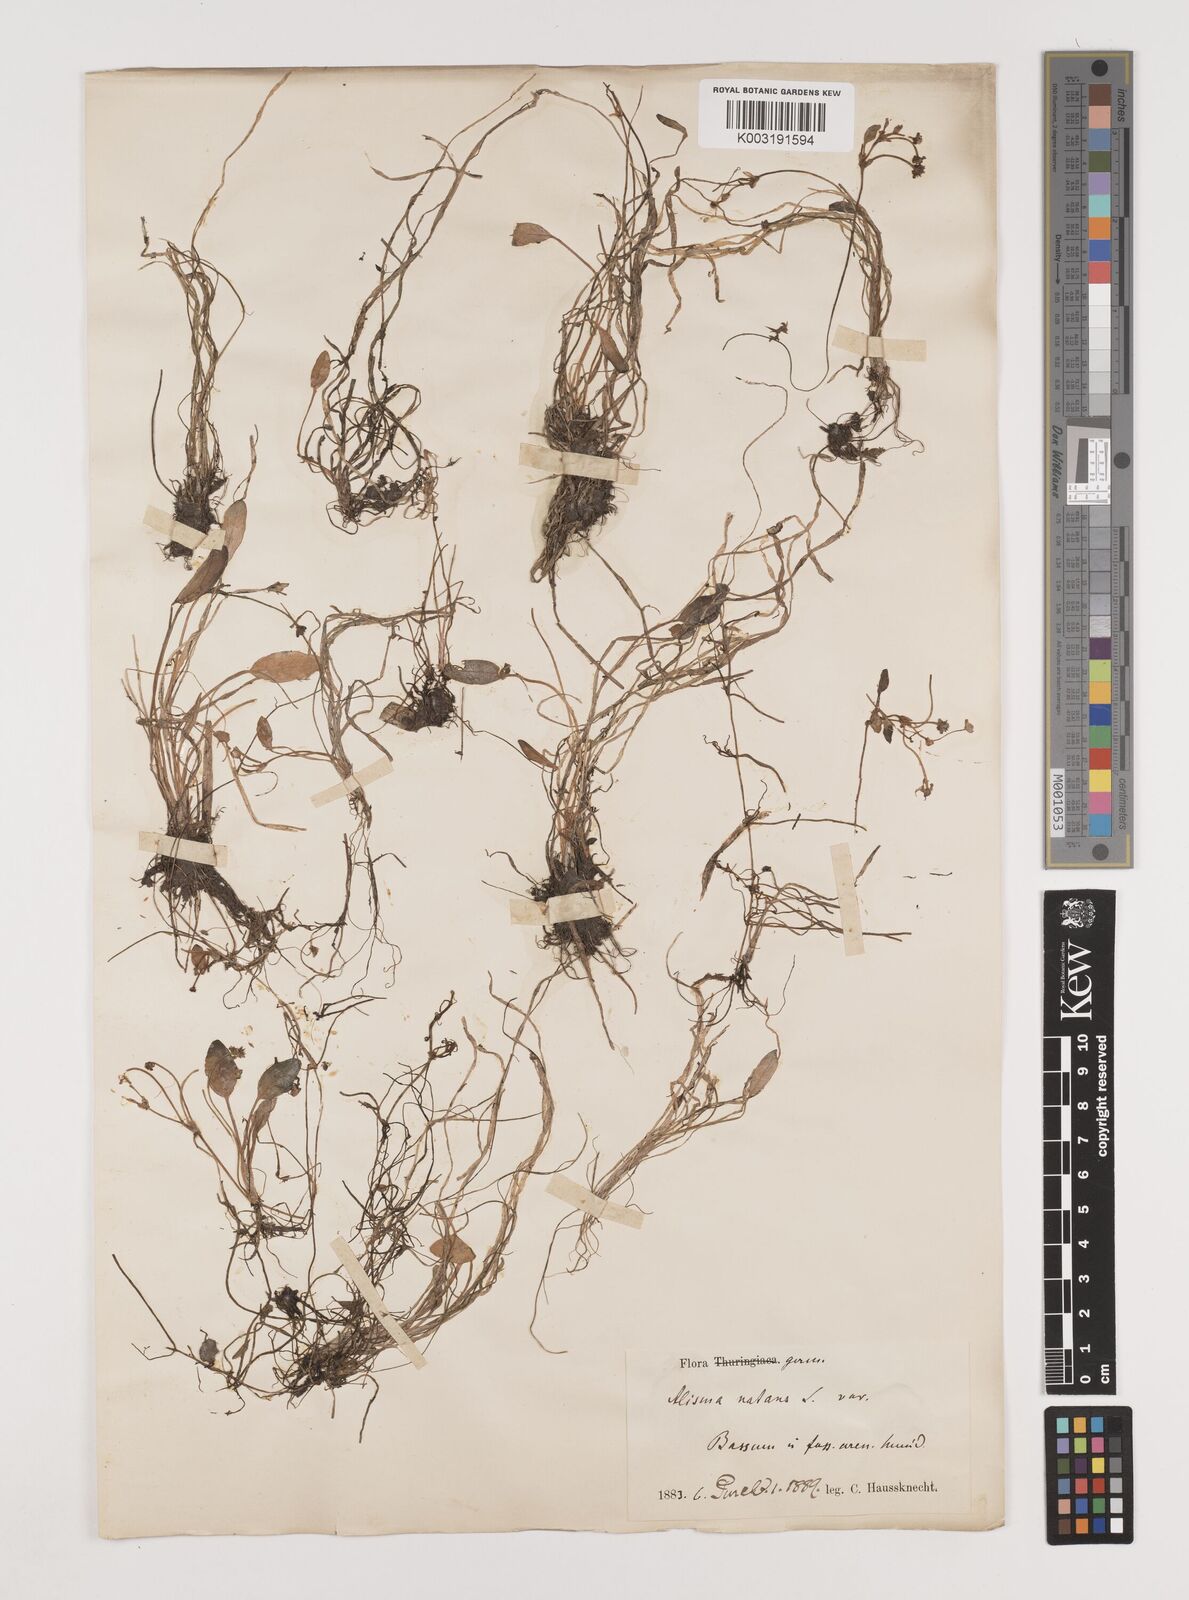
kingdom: Plantae
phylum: Tracheophyta
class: Liliopsida
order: Alismatales
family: Alismataceae
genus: Luronium
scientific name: Luronium natans
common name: Floating water-plantain
